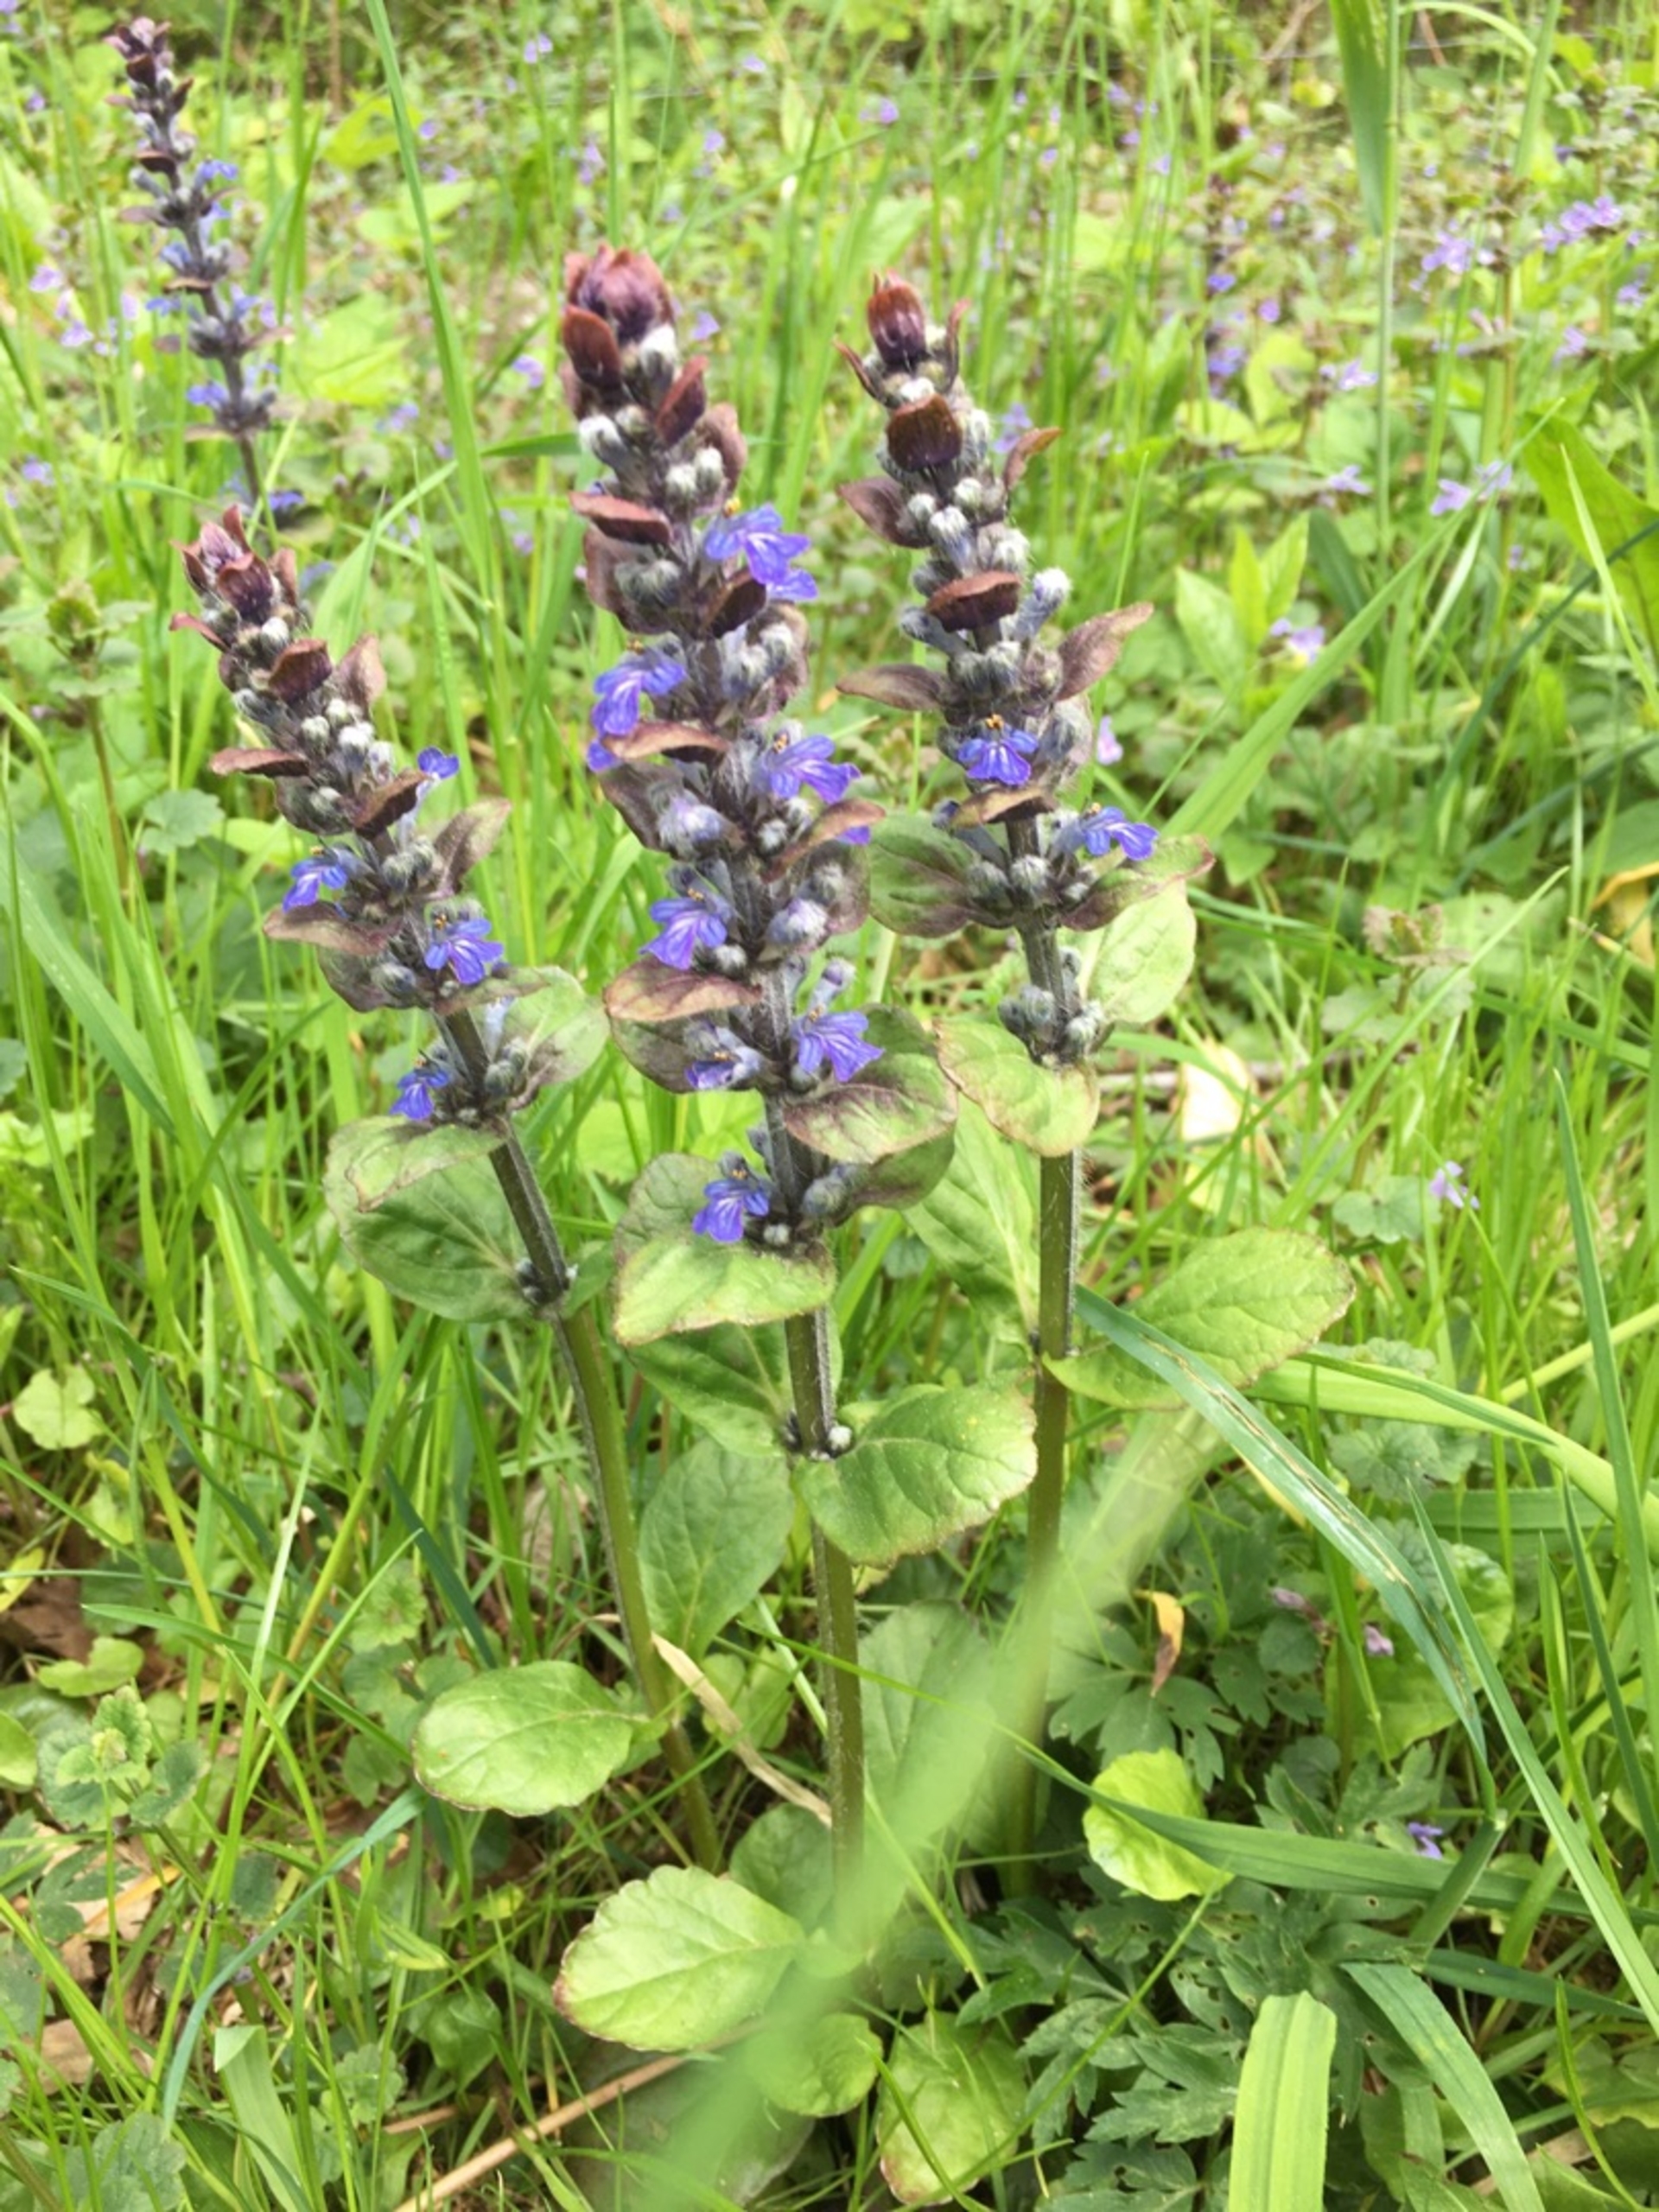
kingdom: Plantae
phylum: Tracheophyta
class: Magnoliopsida
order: Lamiales
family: Lamiaceae
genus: Ajuga
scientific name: Ajuga reptans
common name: Krybende læbeløs
